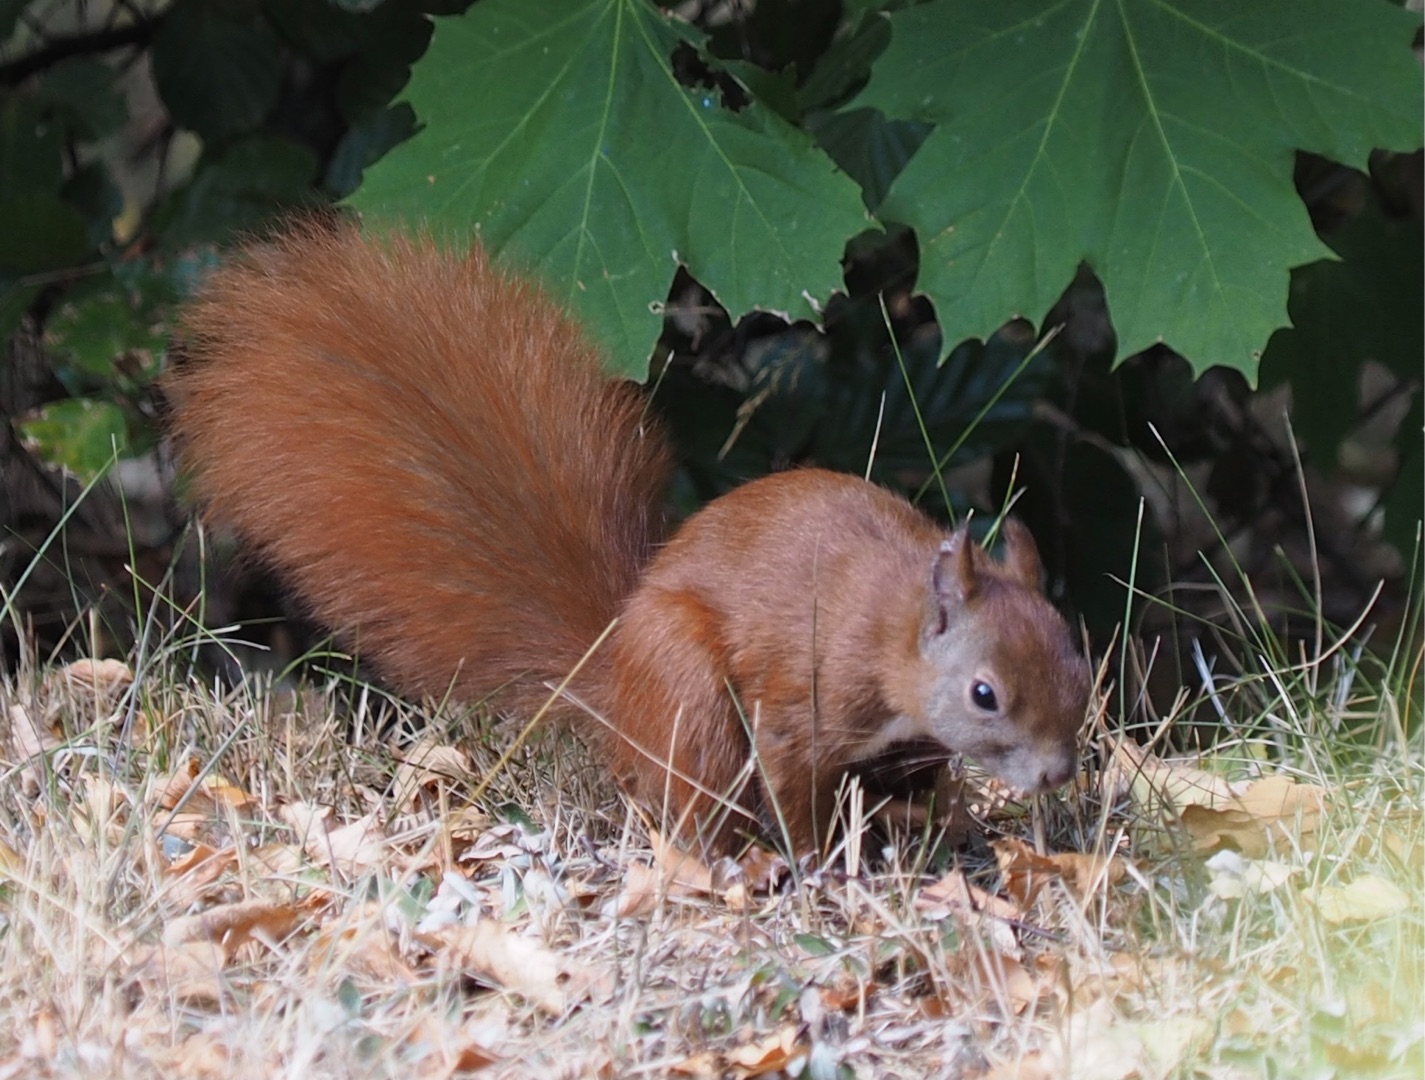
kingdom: Animalia
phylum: Chordata
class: Mammalia
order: Rodentia
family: Sciuridae
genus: Sciurus
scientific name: Sciurus vulgaris
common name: Egern
